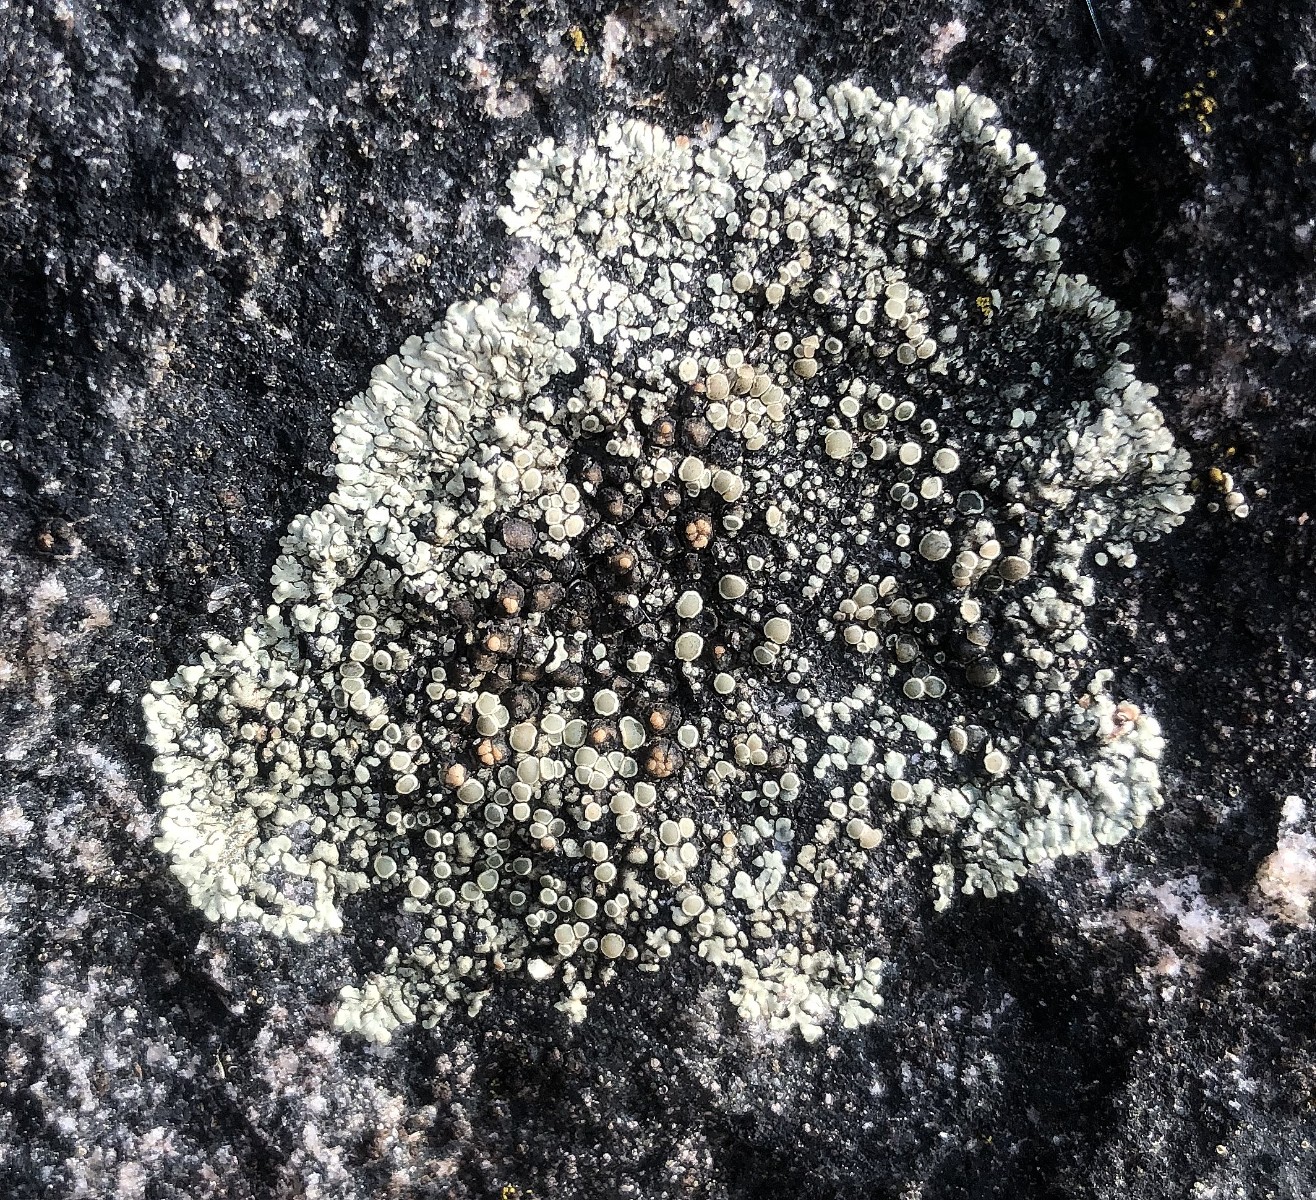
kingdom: Fungi
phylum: Ascomycota
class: Lecanoromycetes
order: Lecanorales
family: Lecanoraceae
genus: Protoparmeliopsis
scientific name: Protoparmeliopsis muralis
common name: randfliget kantskivelav
